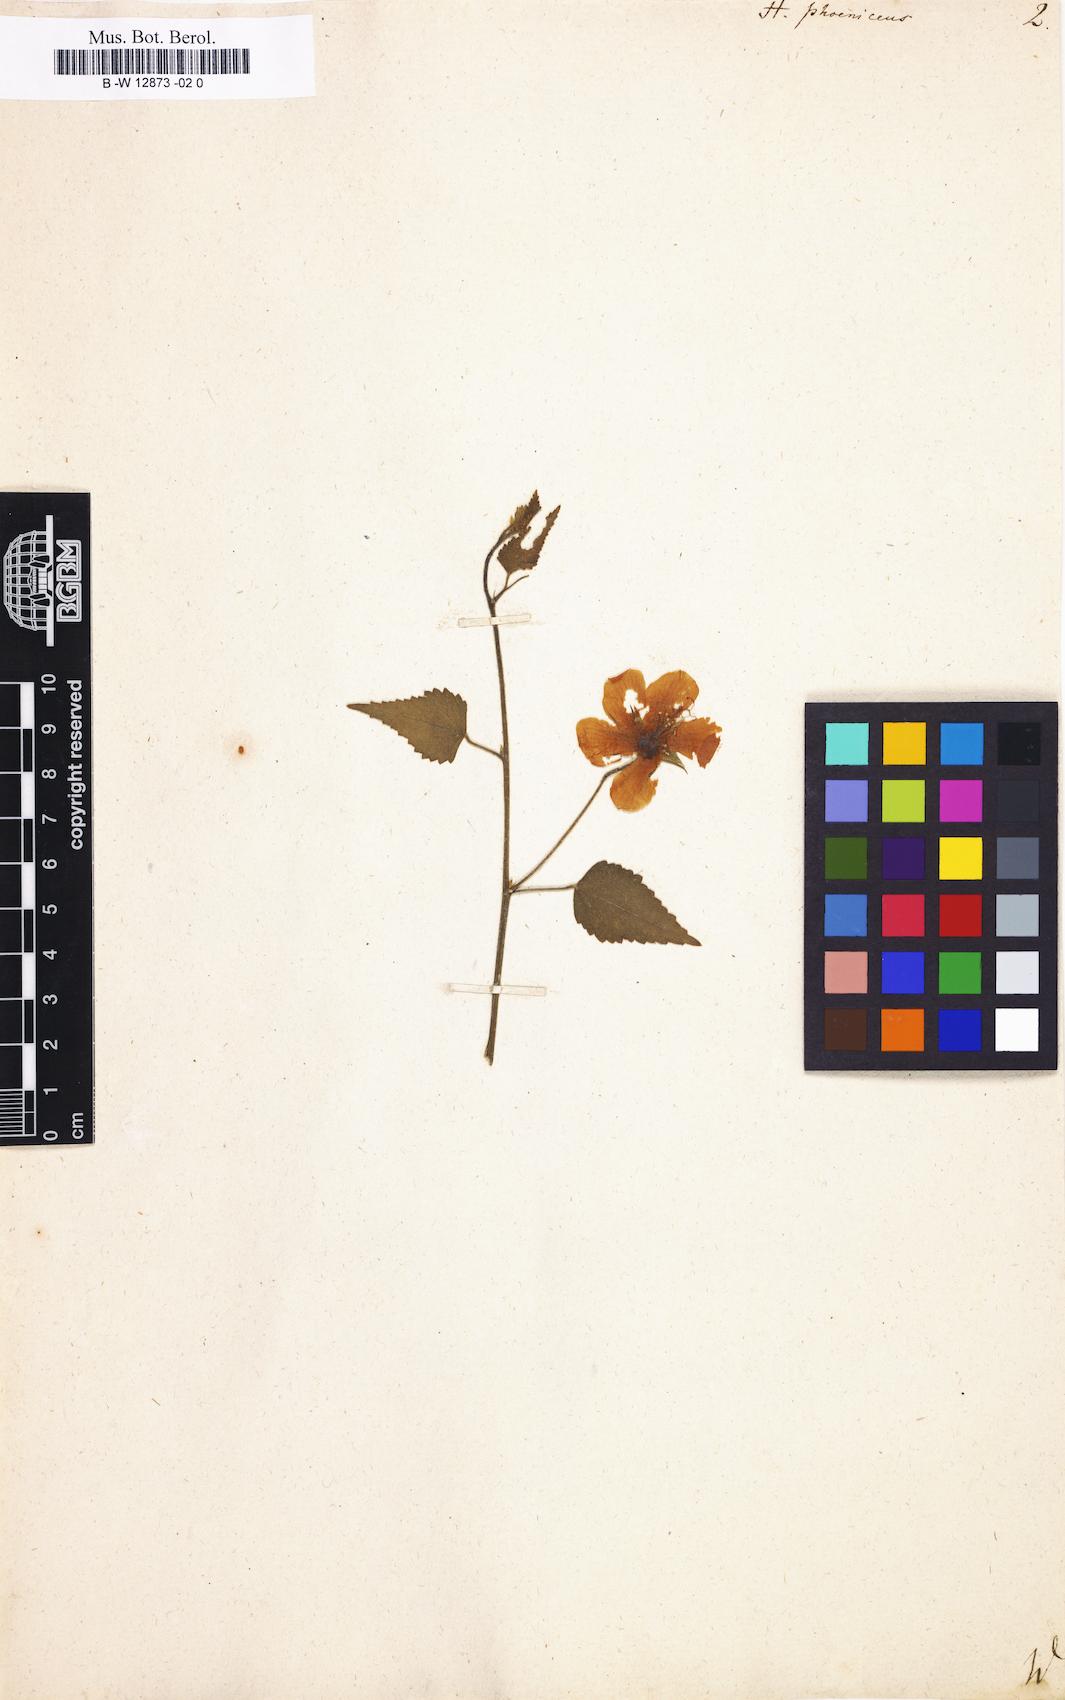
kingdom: Plantae
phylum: Tracheophyta
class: Magnoliopsida
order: Malvales
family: Malvaceae
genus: Hibiscus
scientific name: Hibiscus phoeniceus
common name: Brazilian rosemallow
